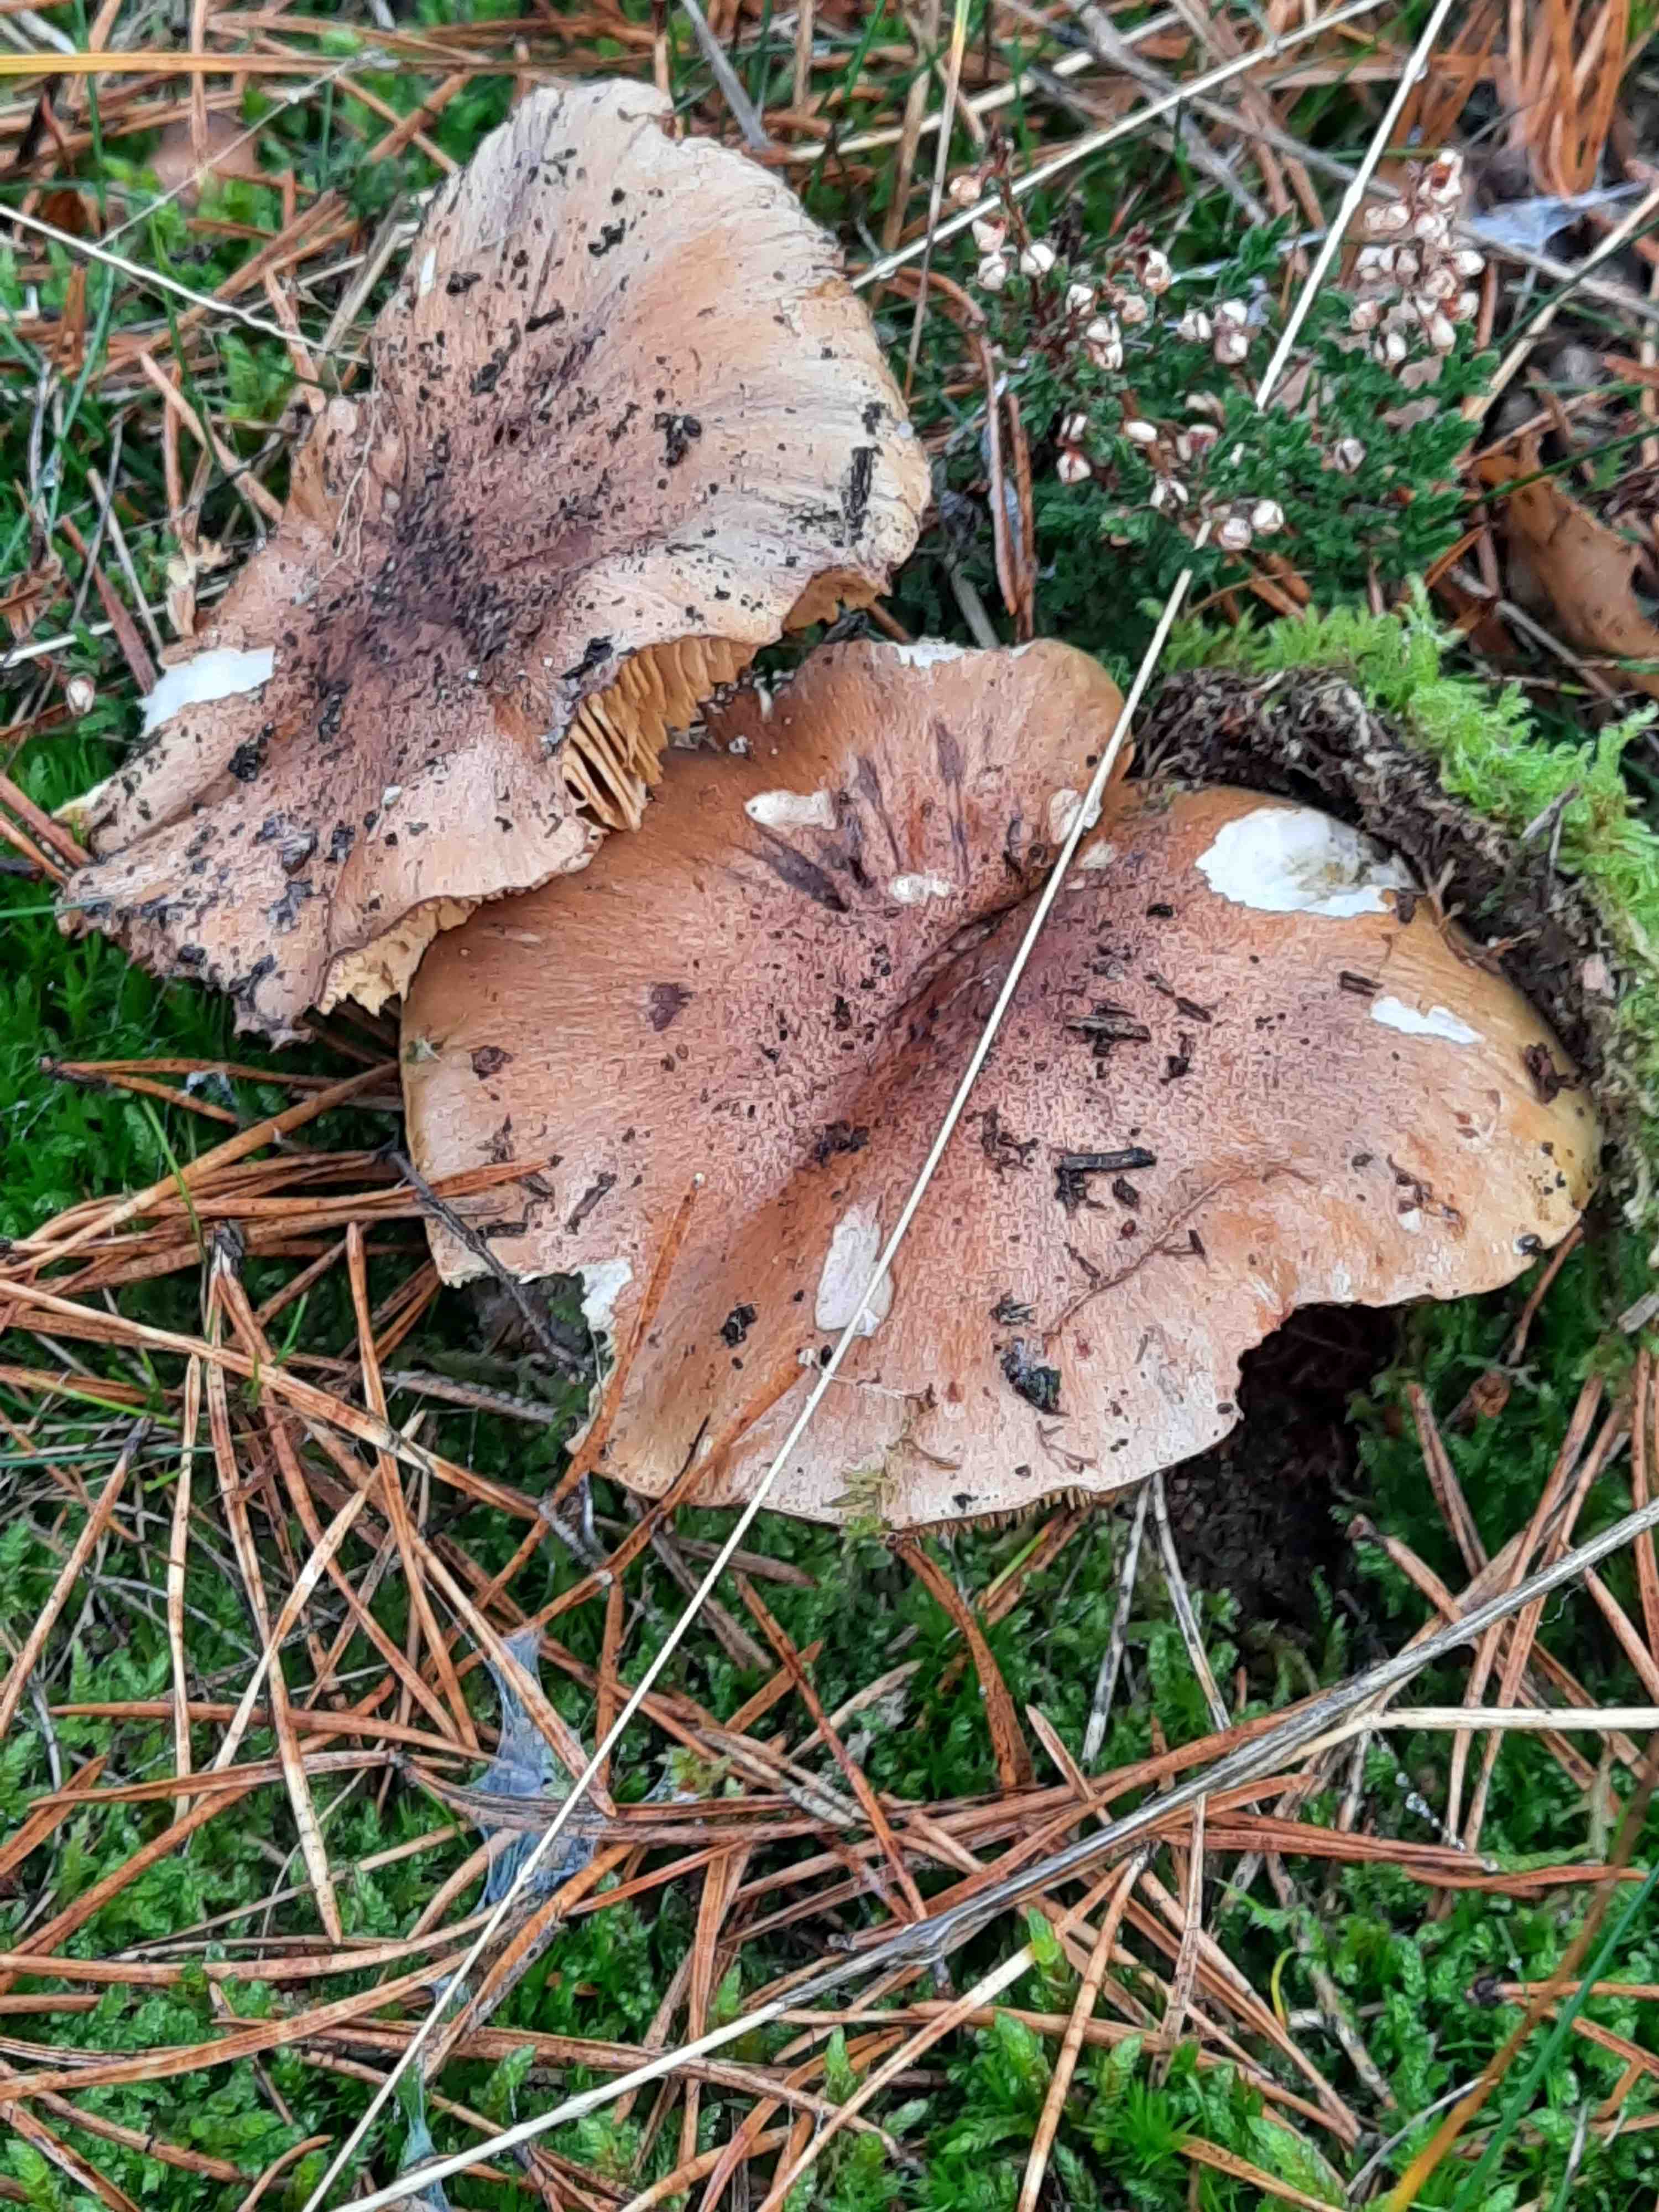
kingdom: Fungi
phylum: Basidiomycota
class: Agaricomycetes
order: Agaricales
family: Tricholomataceae
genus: Tricholoma
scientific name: Tricholoma equestre
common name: ægte ridderhat
